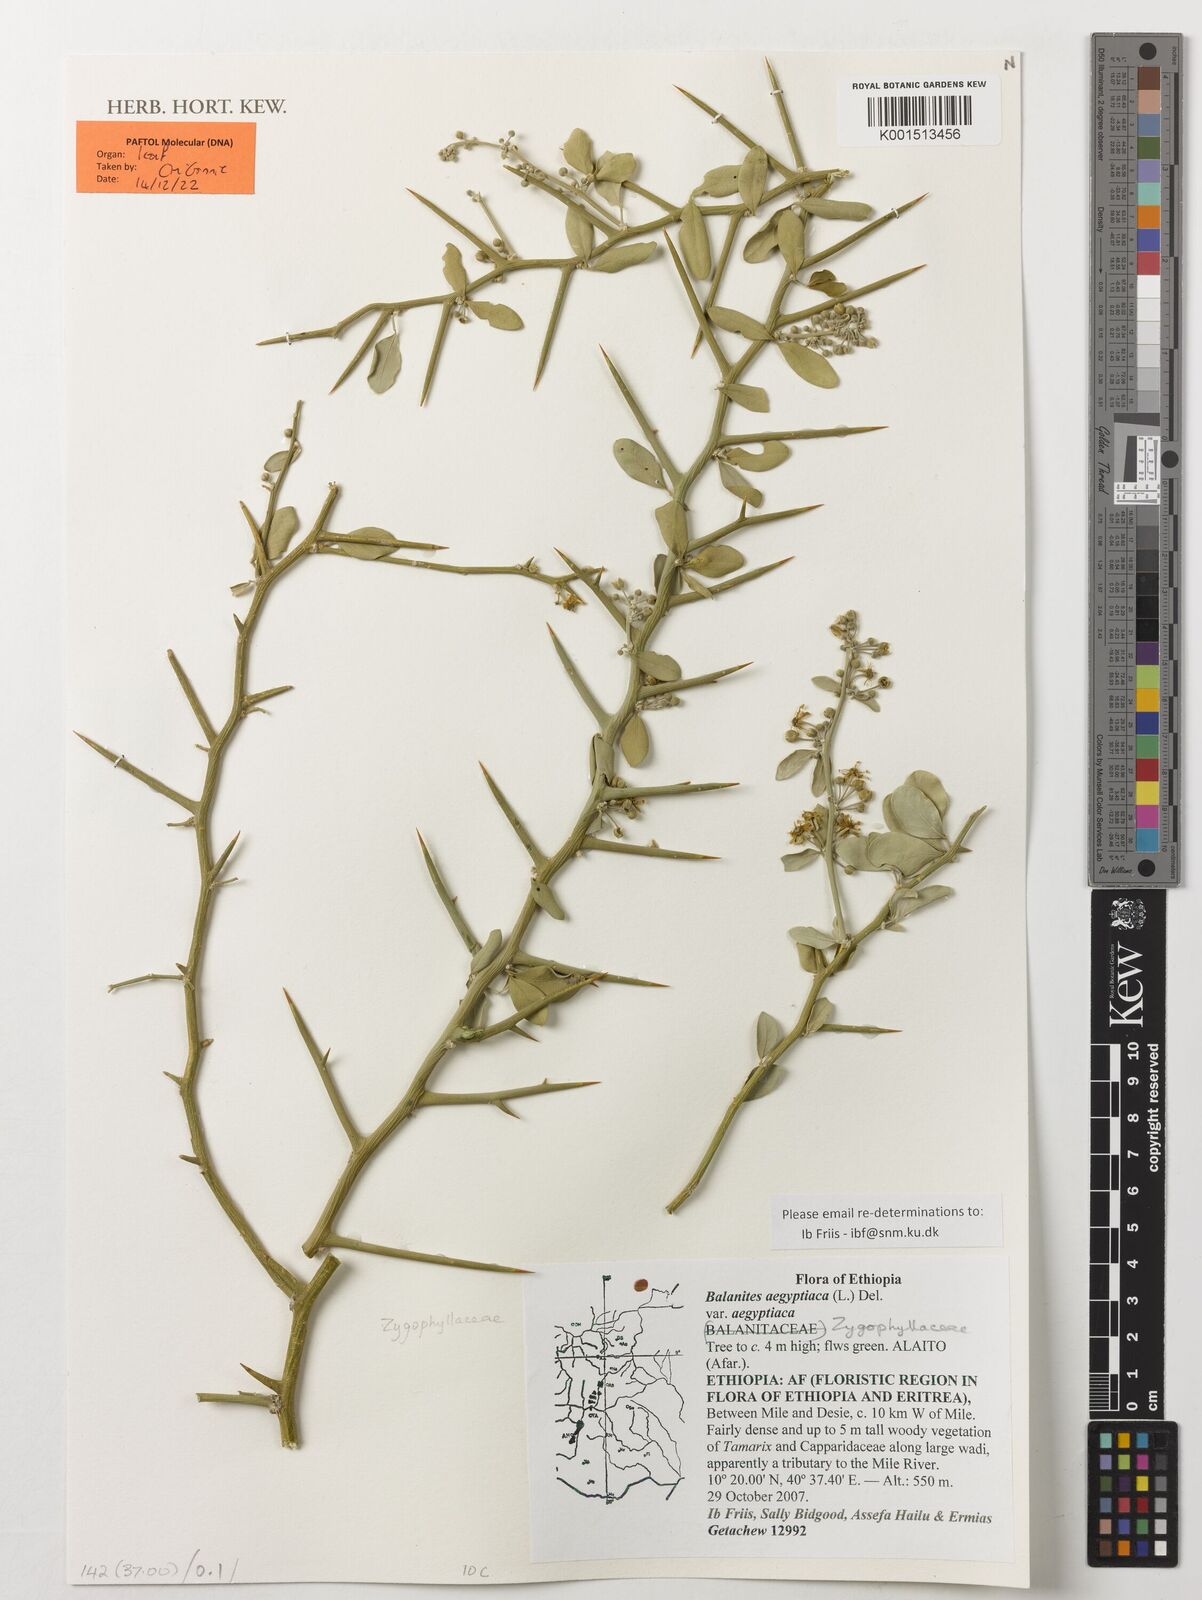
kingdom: Plantae
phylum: Tracheophyta
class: Magnoliopsida
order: Zygophyllales
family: Zygophyllaceae
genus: Balanites
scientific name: Balanites aegyptiaca
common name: Balanites
